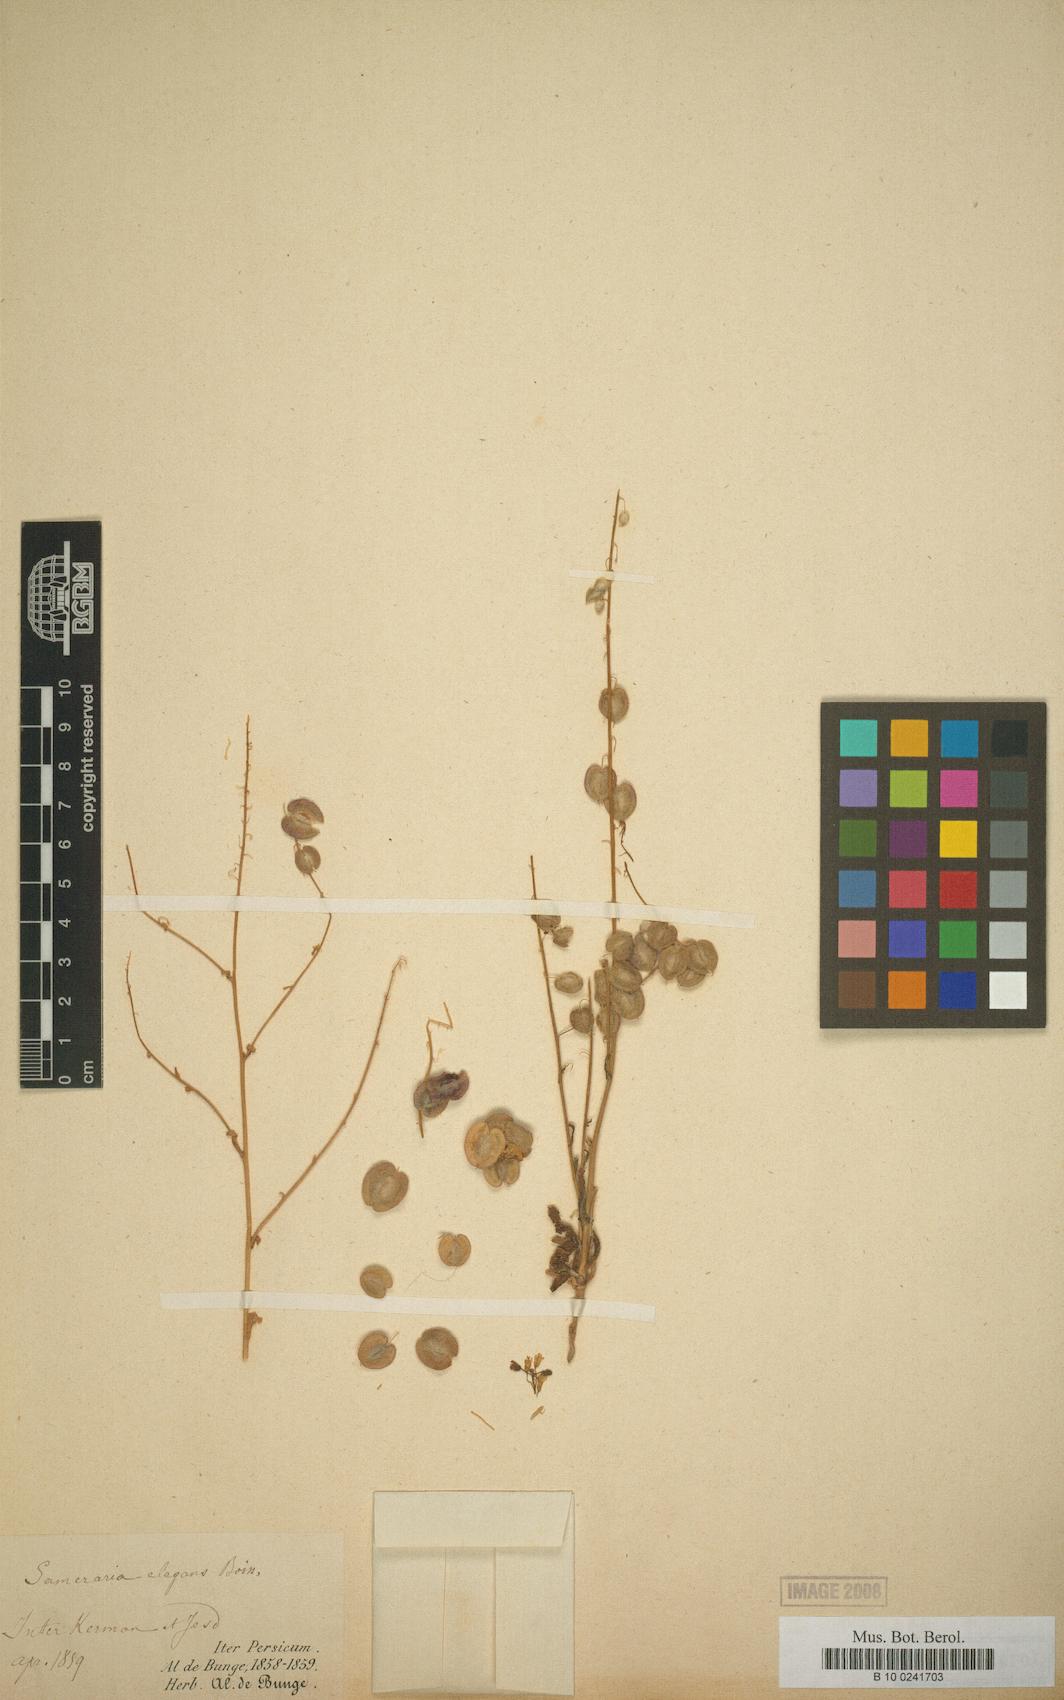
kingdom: Plantae
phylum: Tracheophyta
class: Magnoliopsida
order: Brassicales
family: Brassicaceae
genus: Isatis
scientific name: Isatis elegans
